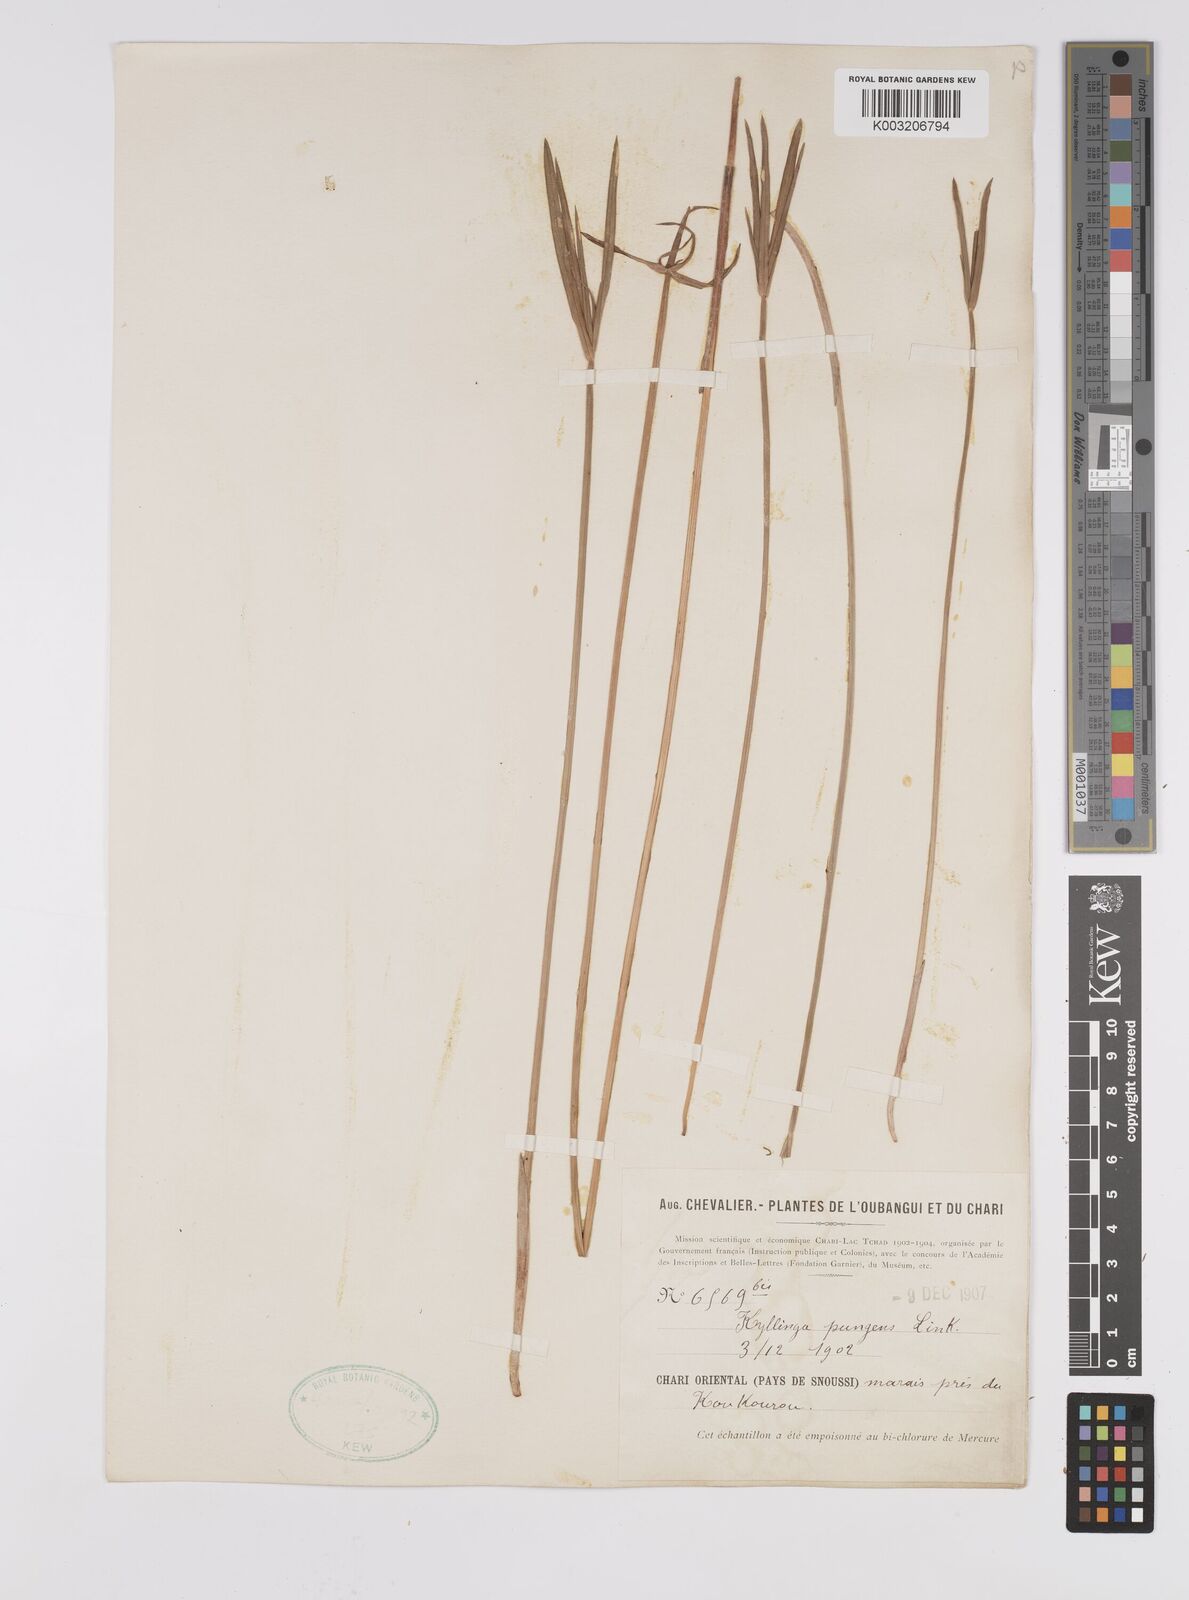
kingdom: Plantae
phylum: Tracheophyta
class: Liliopsida
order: Poales
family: Cyperaceae
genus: Cyperus
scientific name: Cyperus
